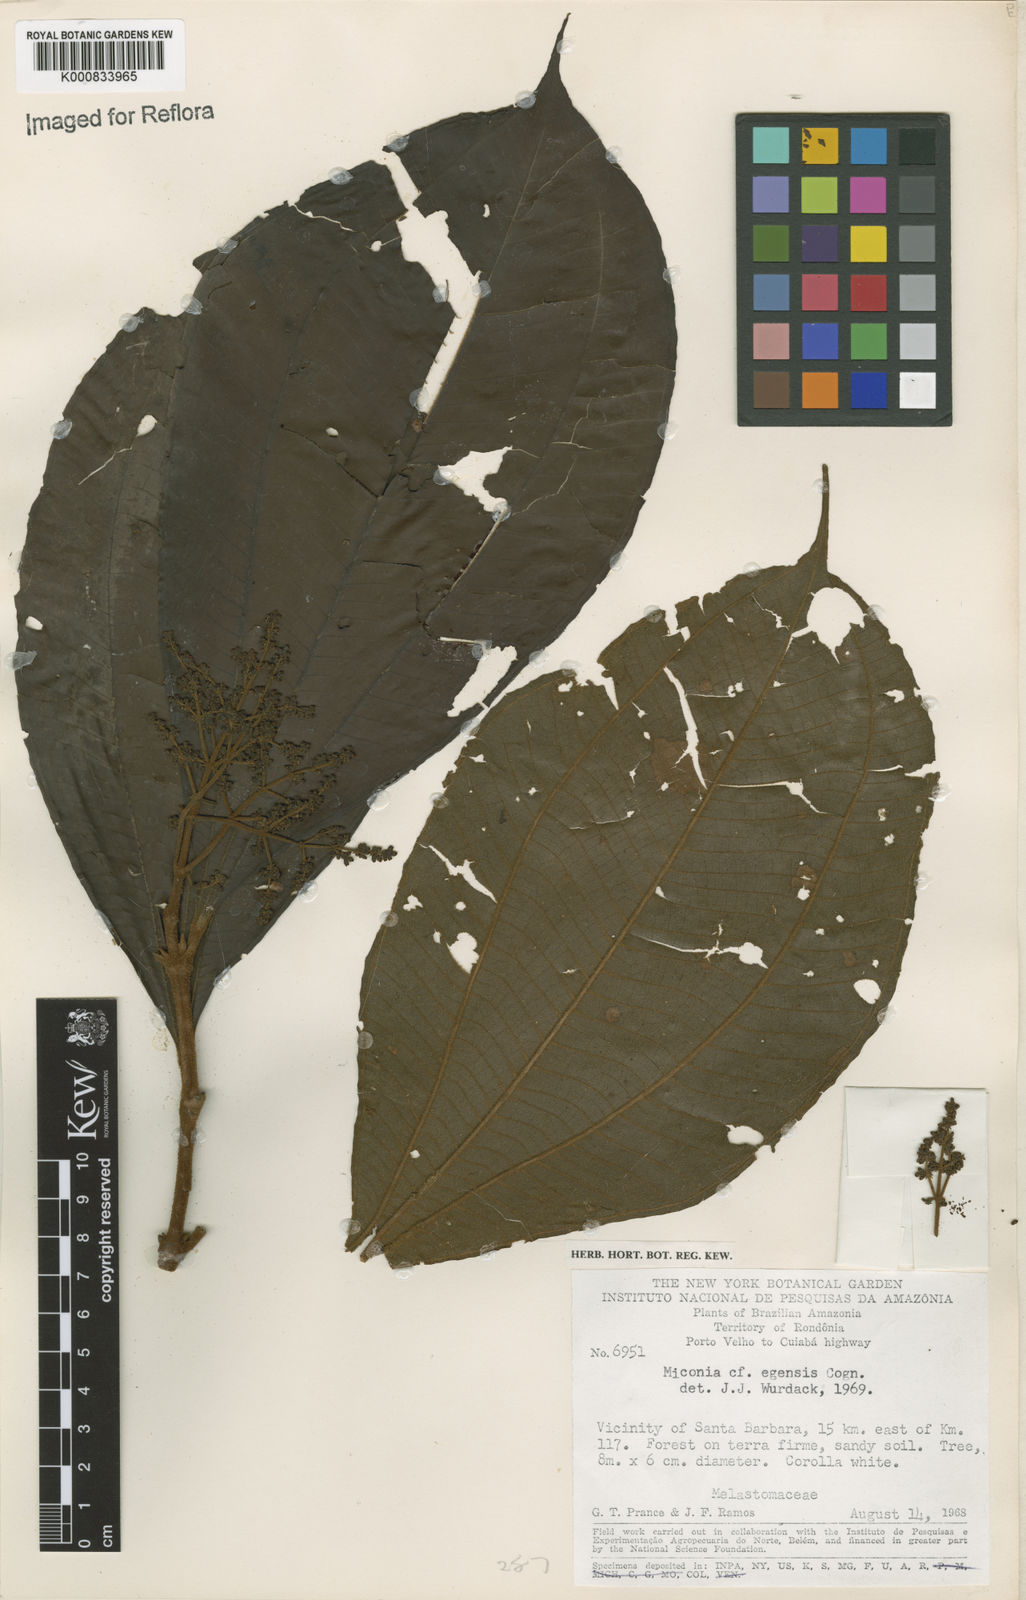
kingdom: Plantae
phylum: Tracheophyta
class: Magnoliopsida
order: Myrtales
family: Melastomataceae
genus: Miconia
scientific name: Miconia egensis
